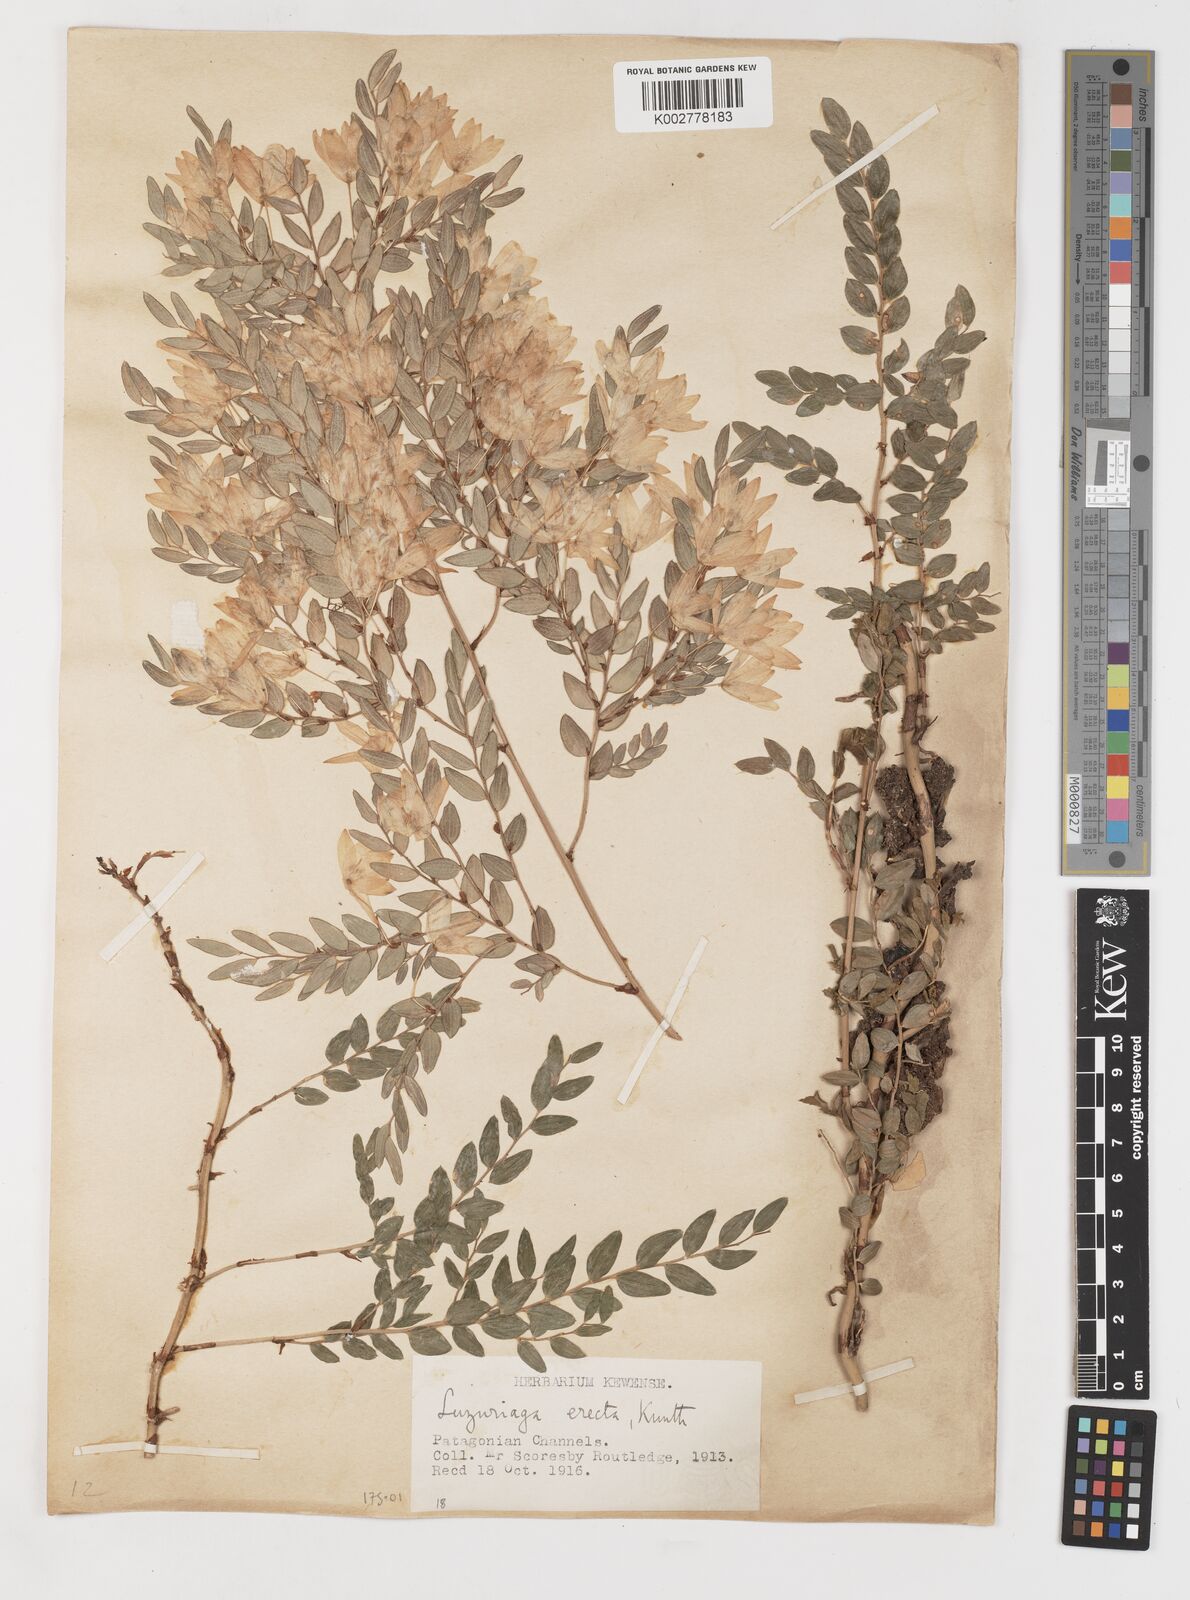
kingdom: Plantae
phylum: Tracheophyta
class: Liliopsida
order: Liliales
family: Alstroemeriaceae
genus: Luzuriaga
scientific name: Luzuriaga polyphylla
